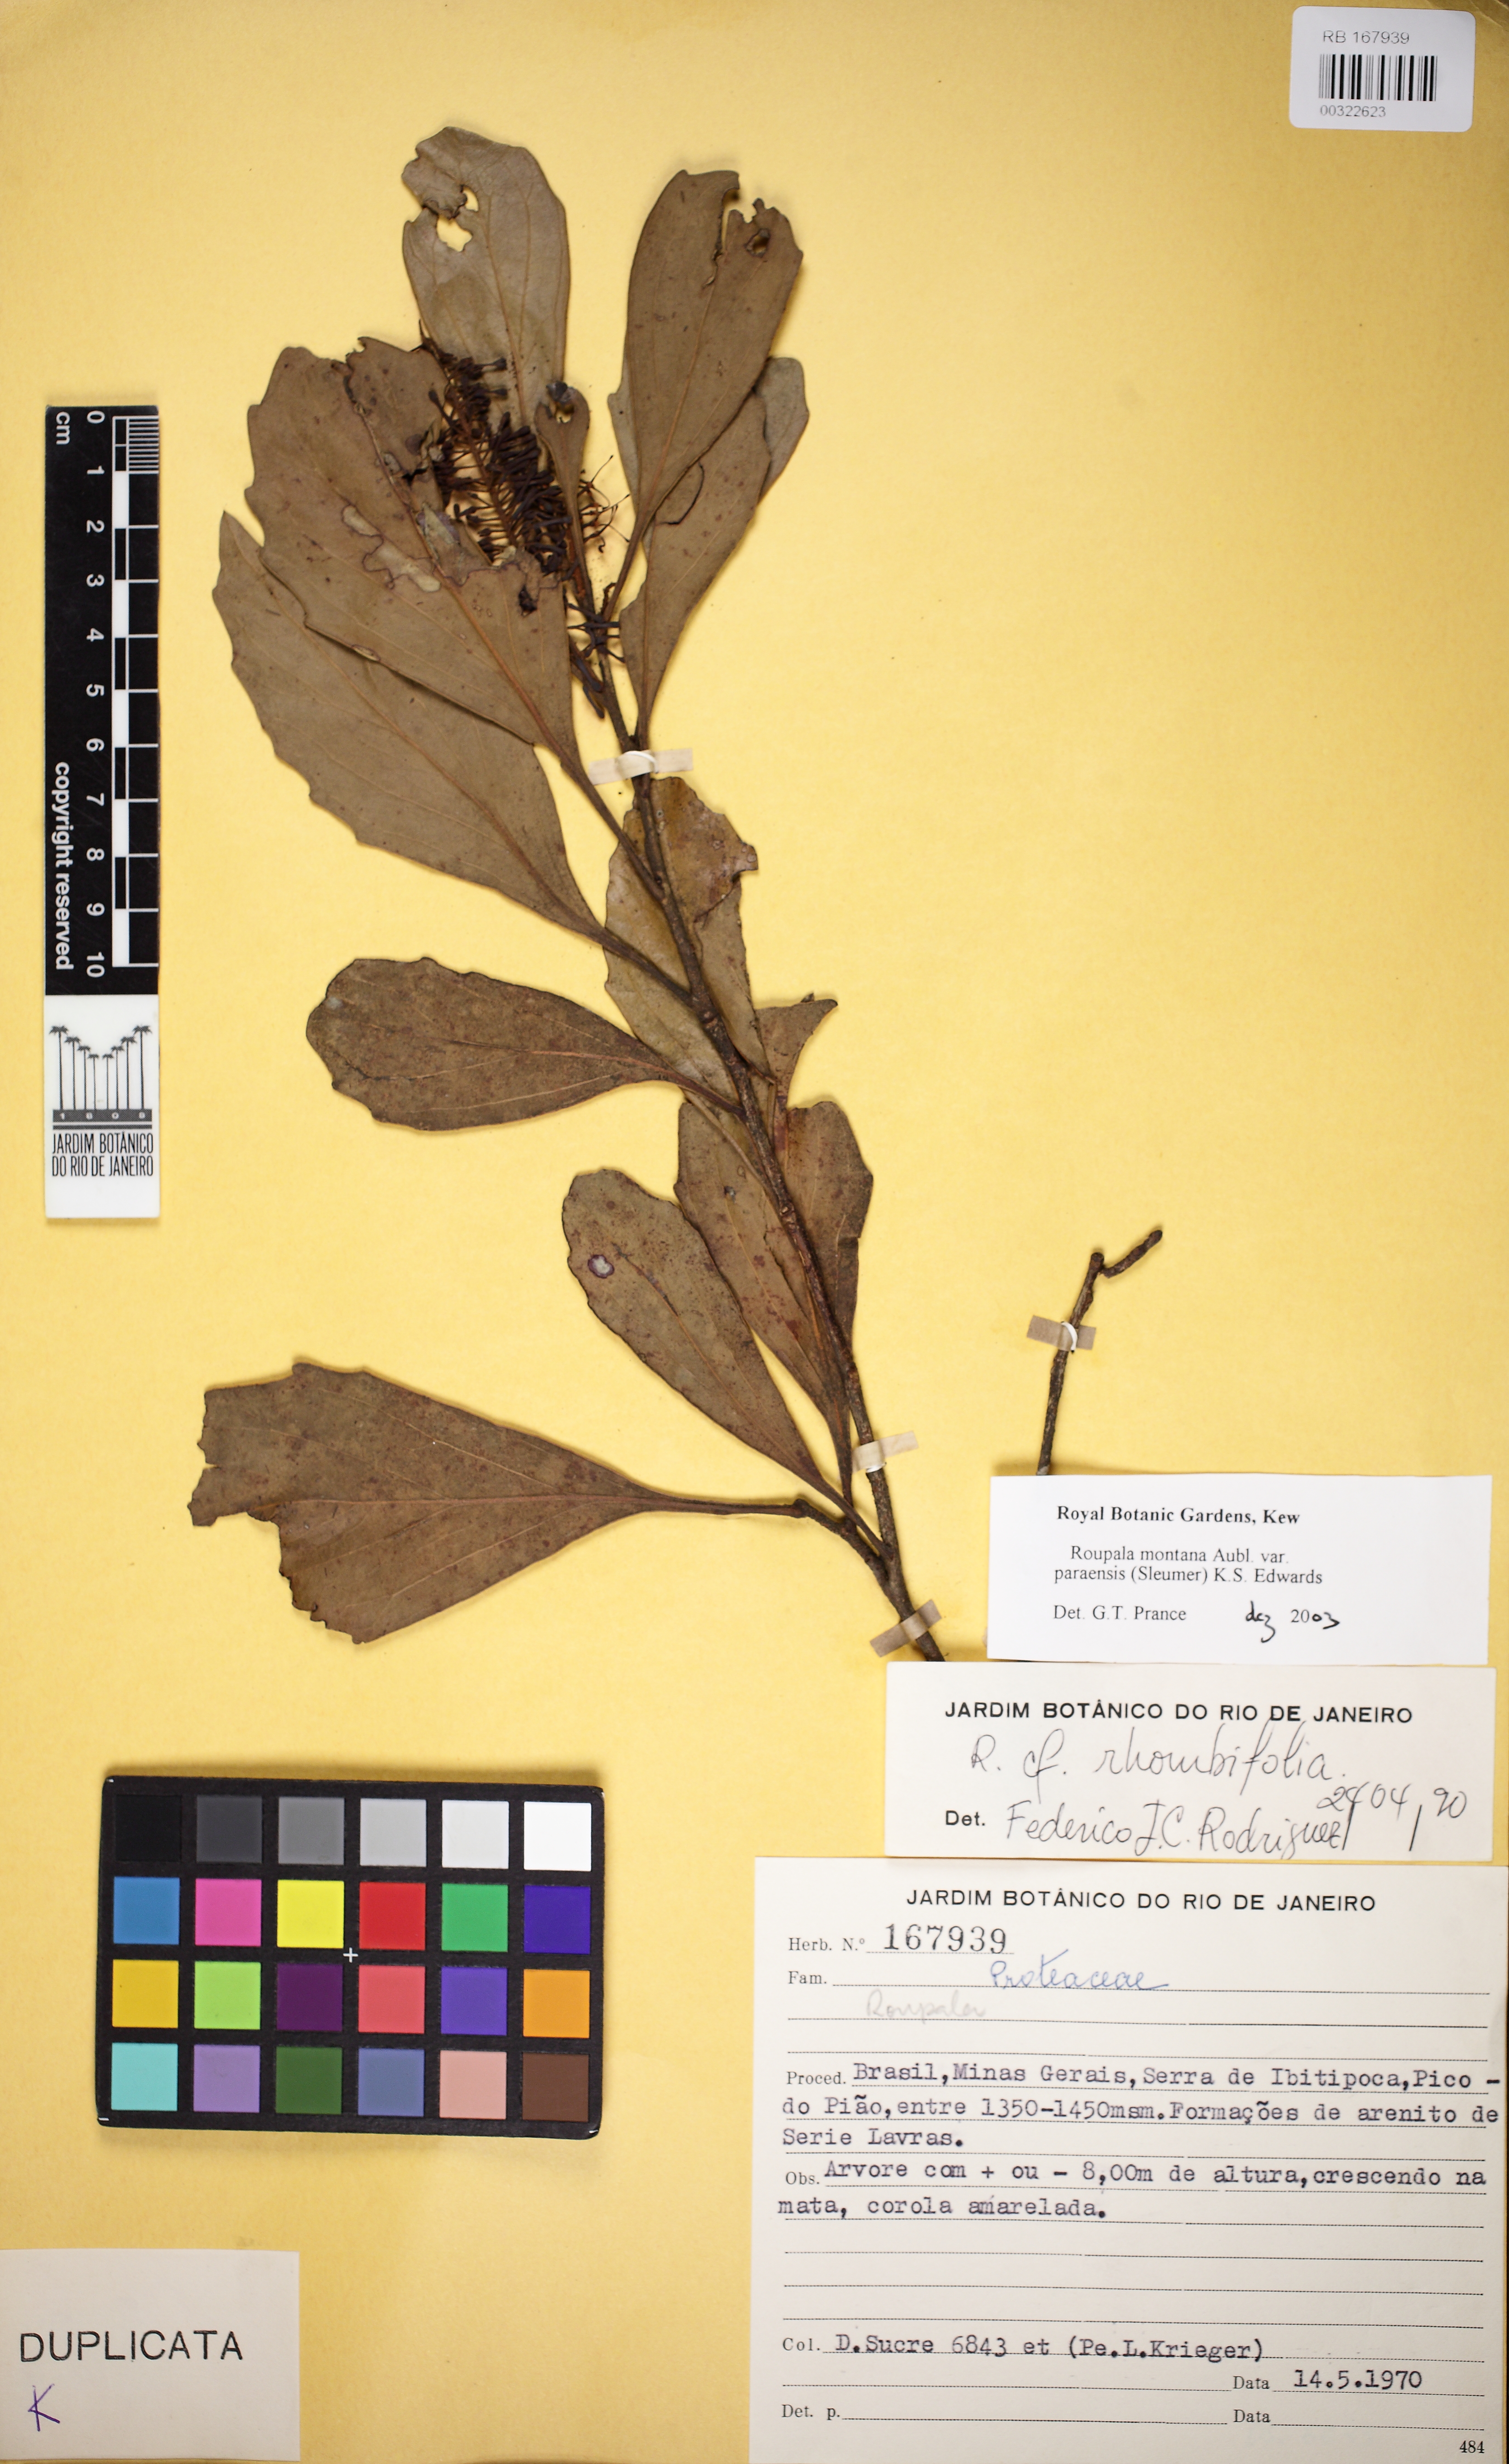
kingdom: Plantae
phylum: Tracheophyta
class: Magnoliopsida
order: Proteales
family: Proteaceae
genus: Roupala
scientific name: Roupala montana
